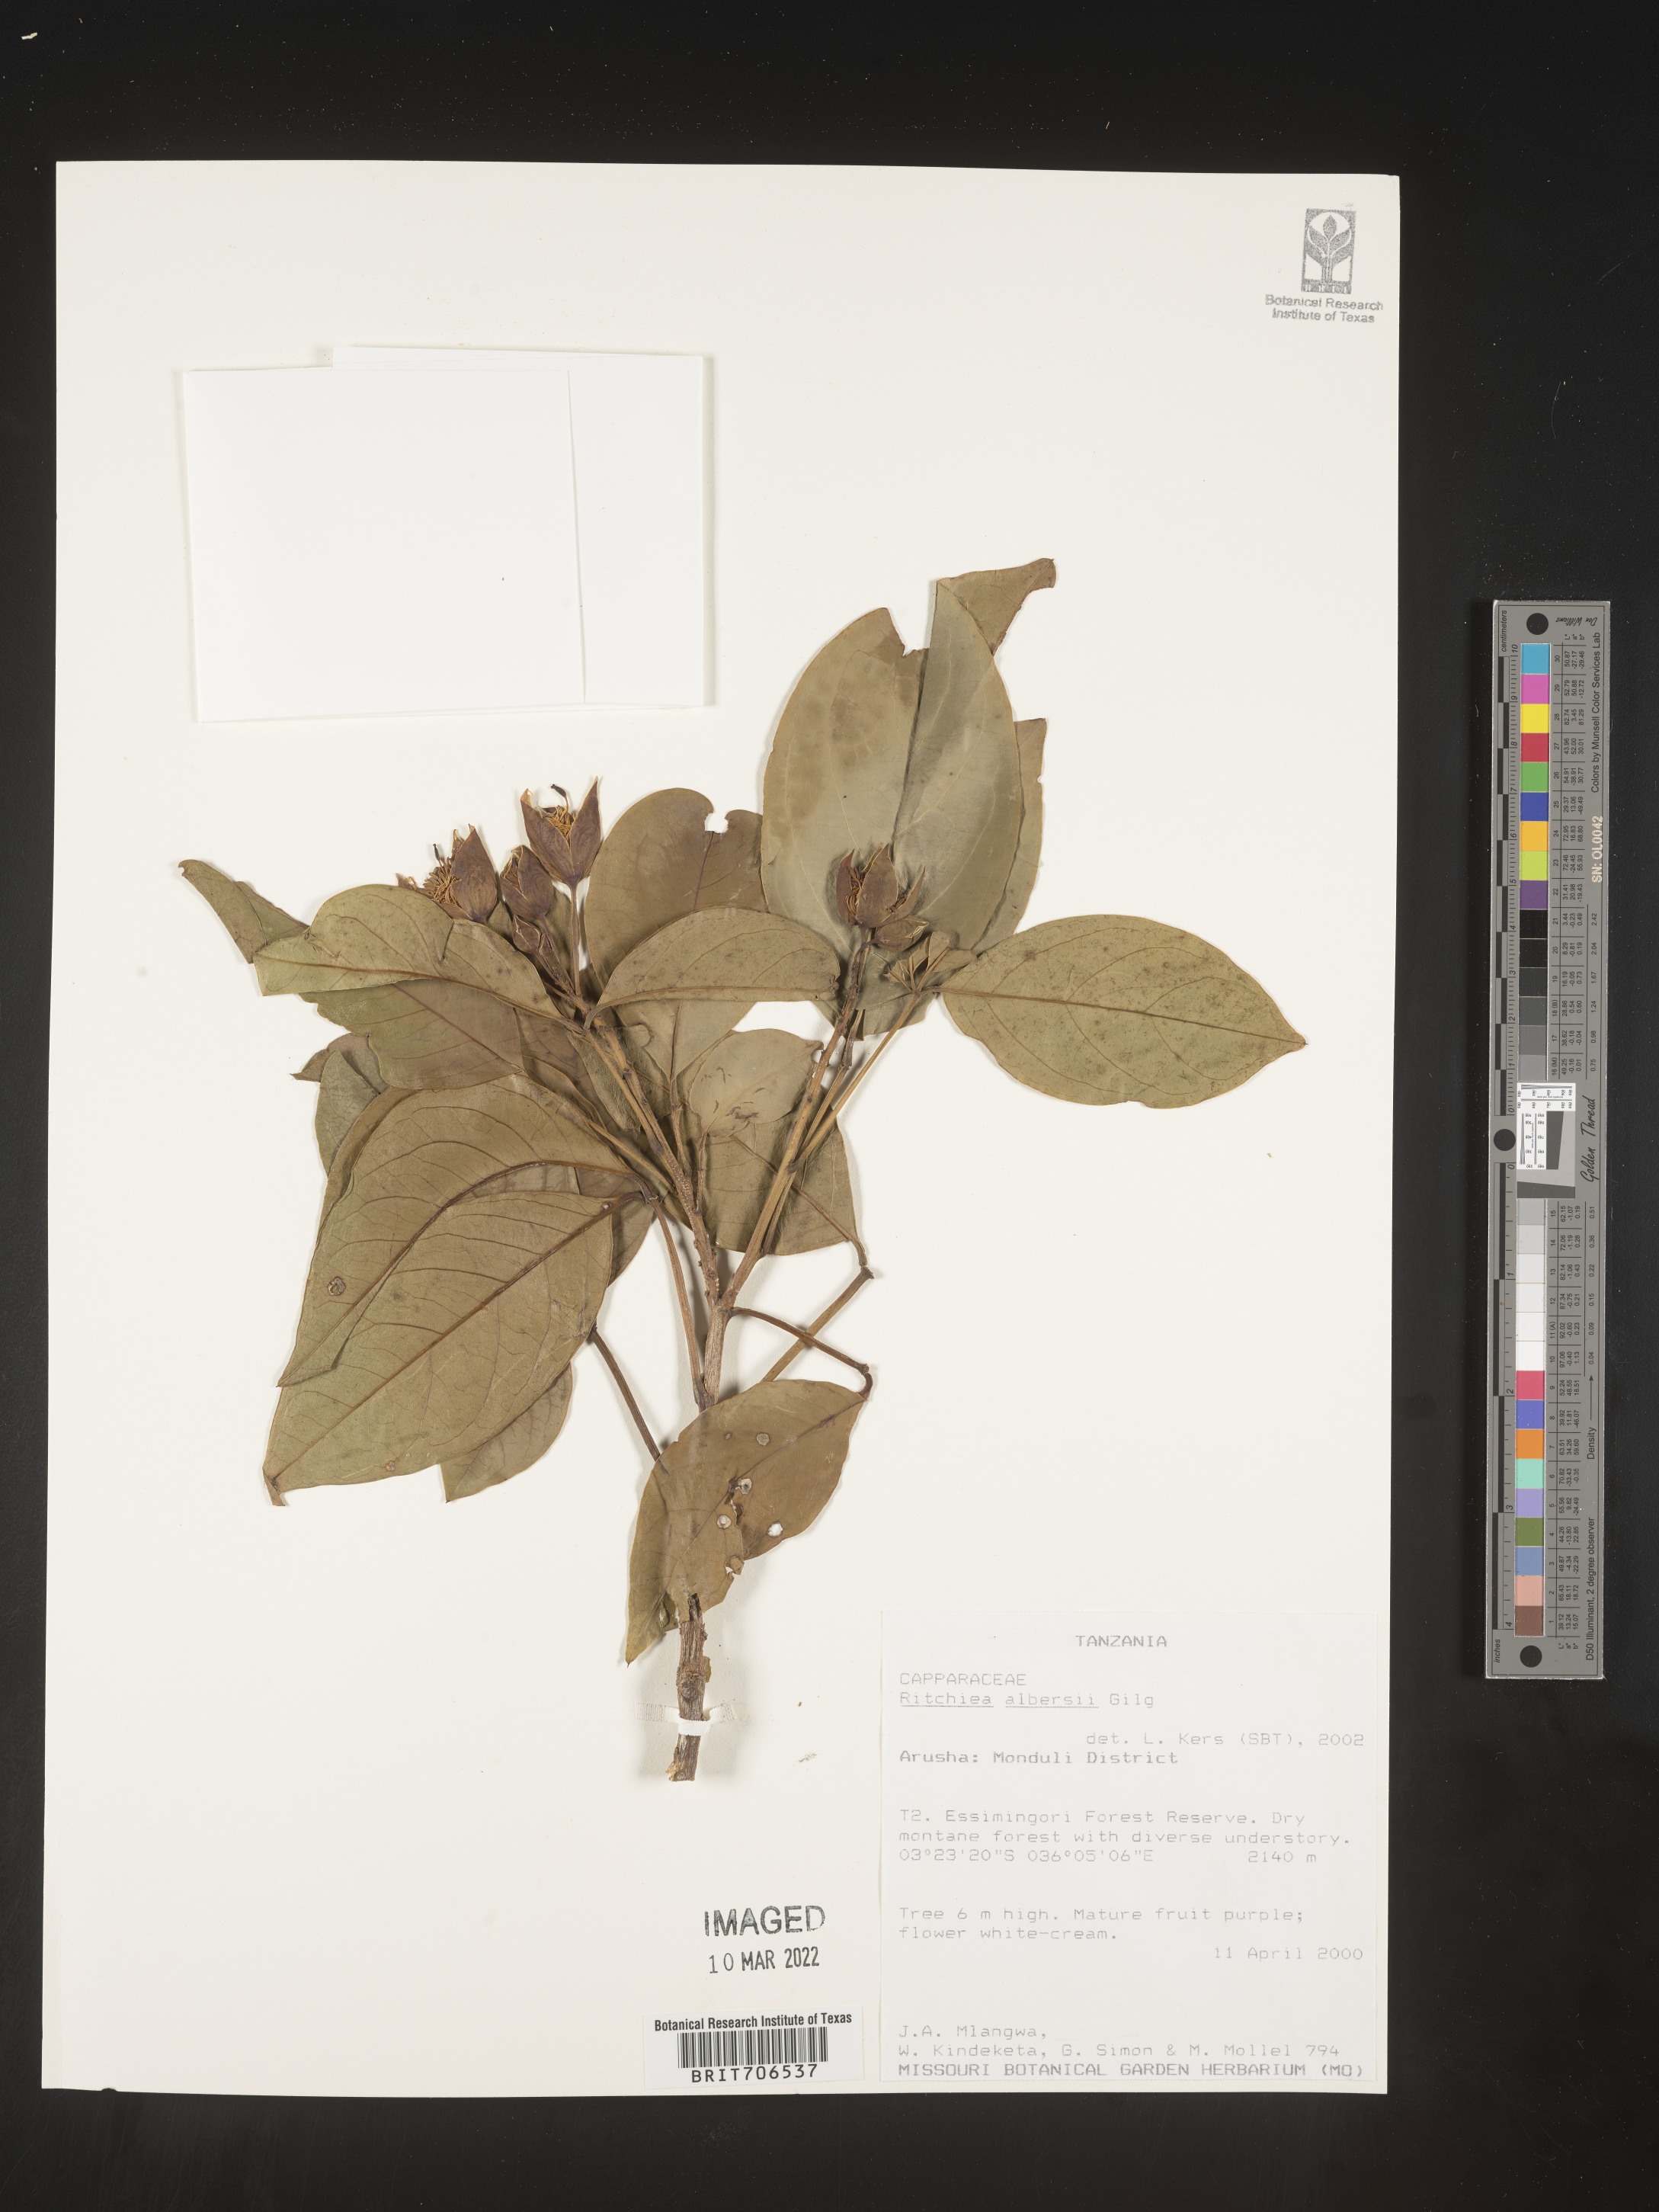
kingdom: Plantae
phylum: Tracheophyta
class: Magnoliopsida
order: Brassicales
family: Capparaceae
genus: Ritchiea
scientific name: Ritchiea
